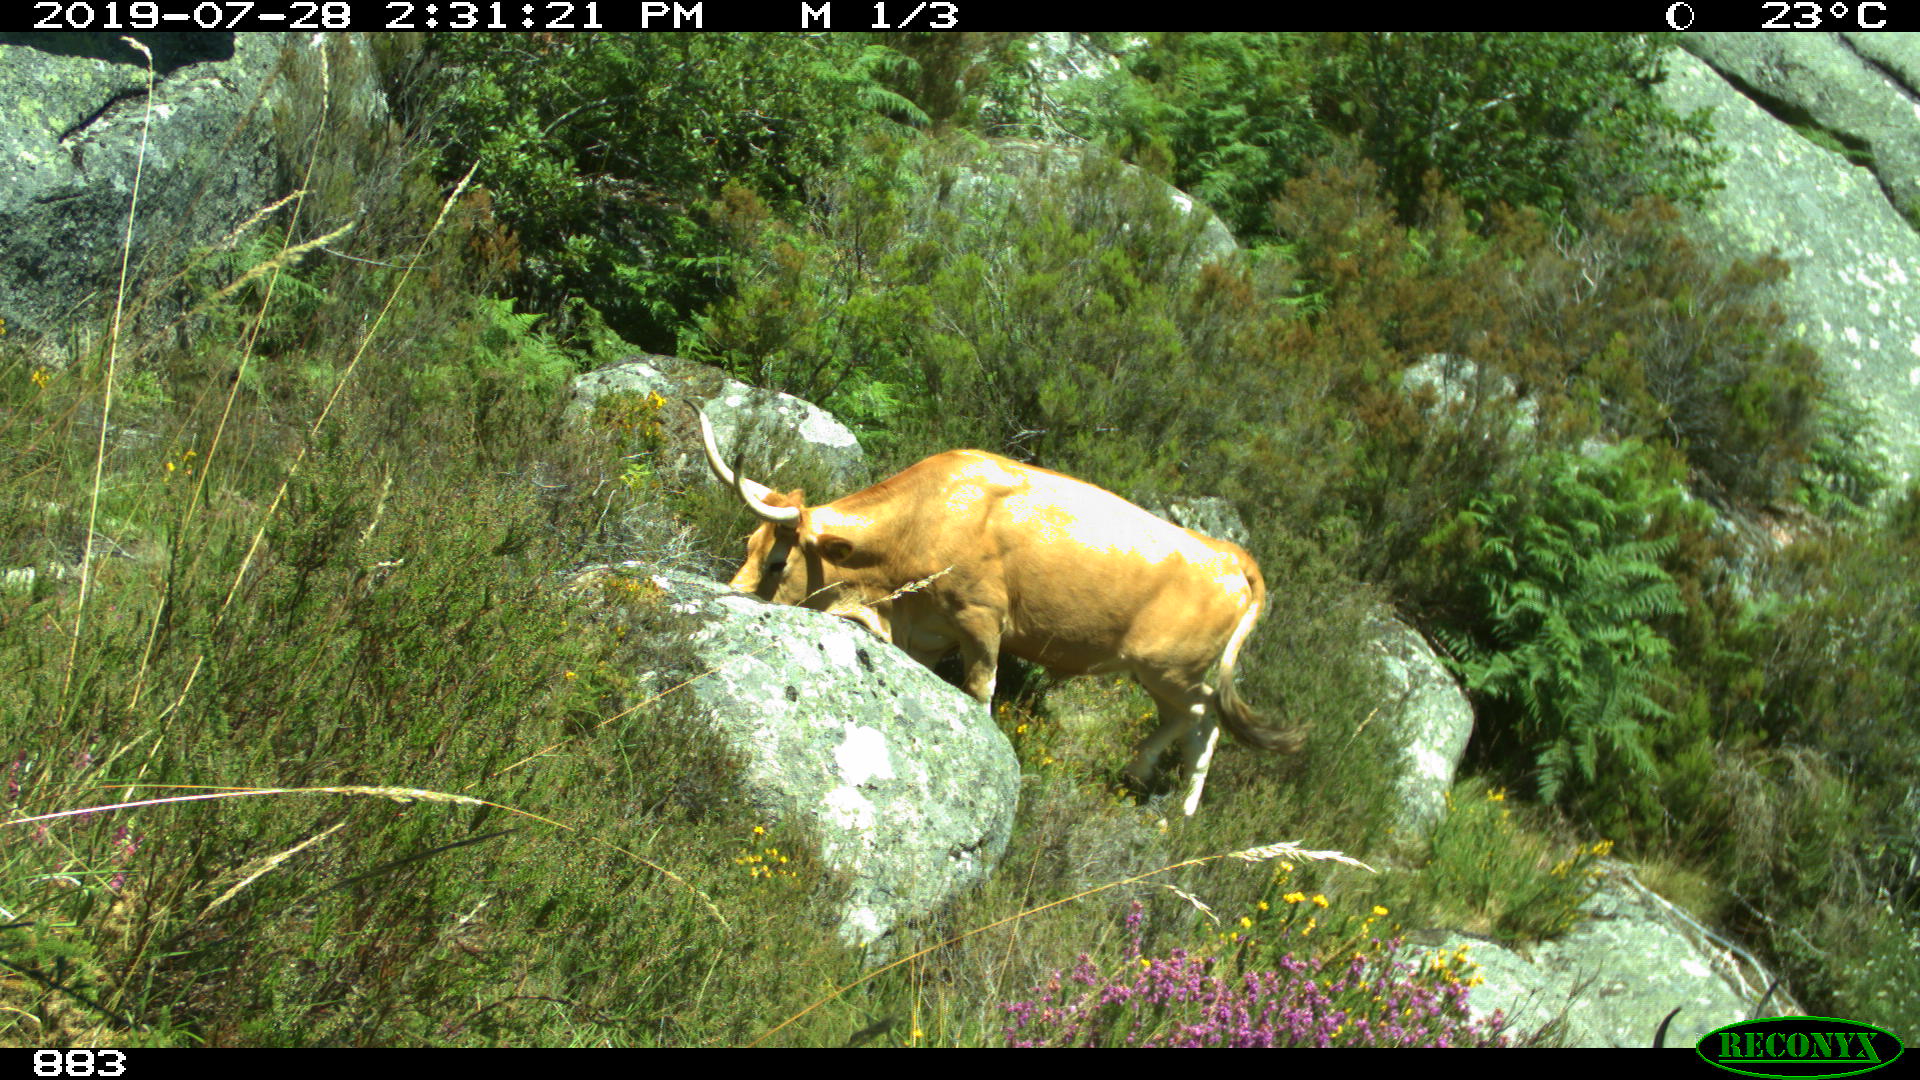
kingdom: Animalia
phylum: Chordata
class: Mammalia
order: Artiodactyla
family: Bovidae
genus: Bos
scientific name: Bos taurus
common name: Domesticated cattle
